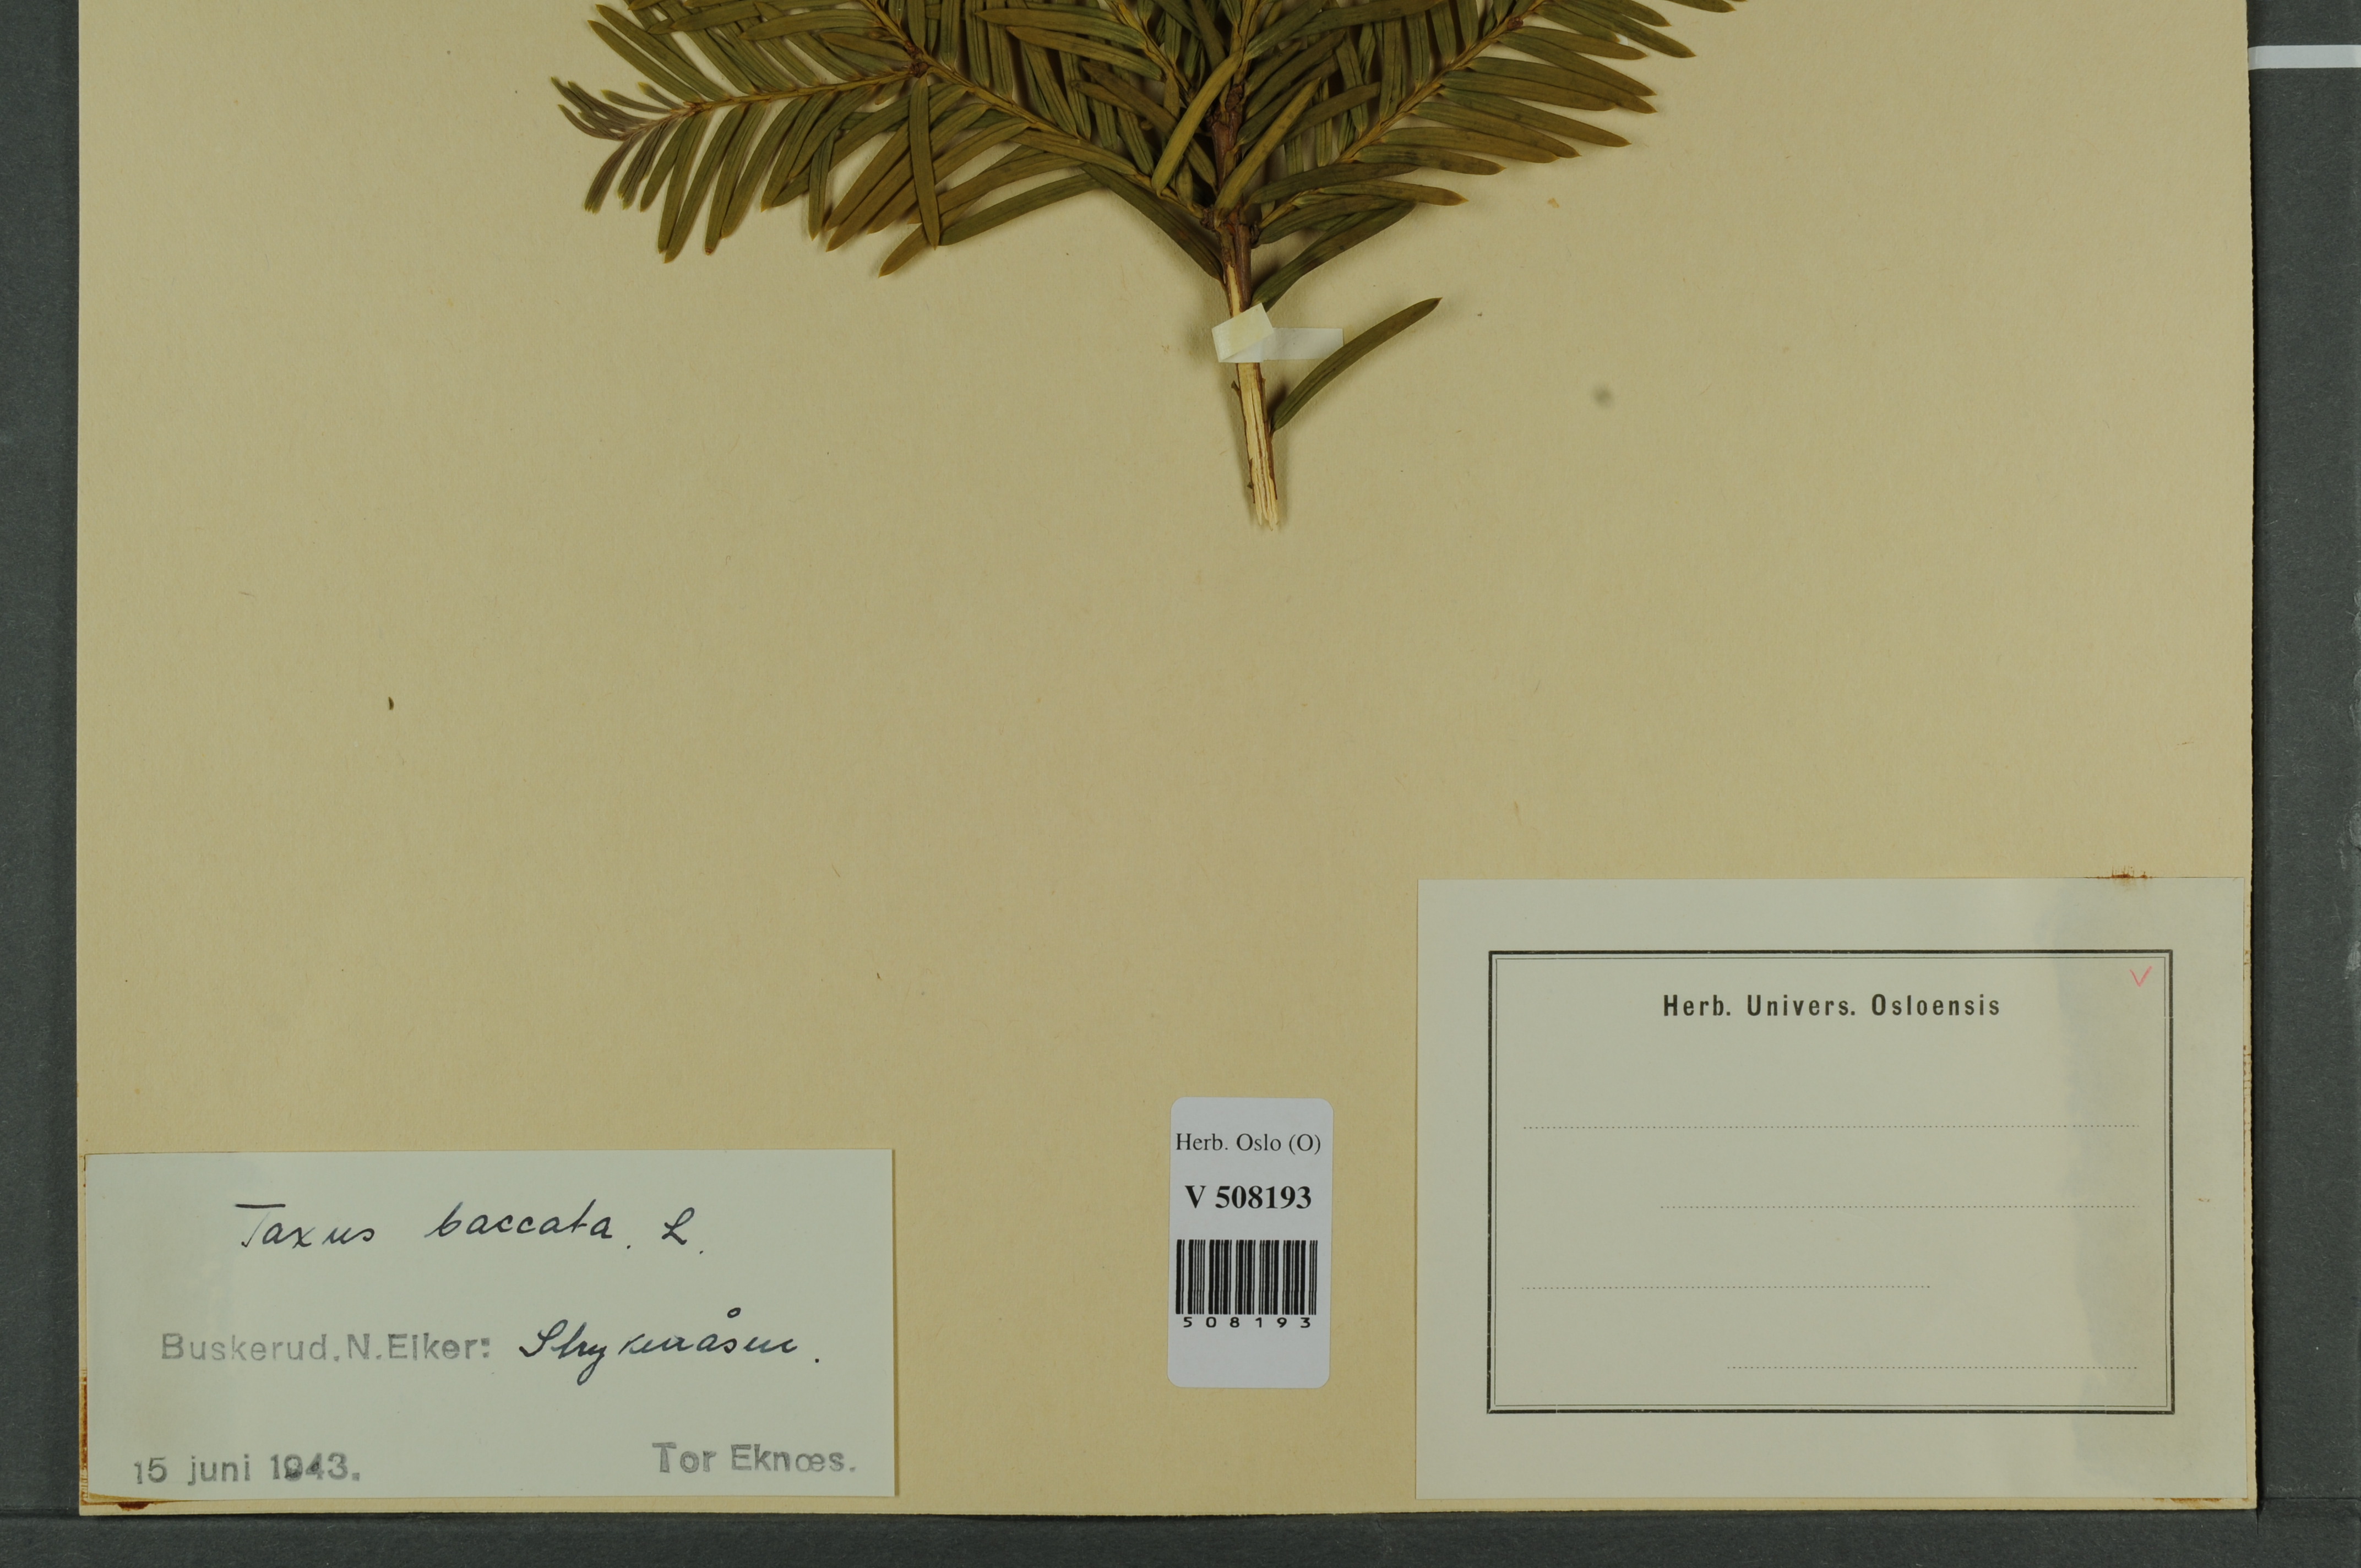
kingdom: Plantae
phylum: Tracheophyta
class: Pinopsida
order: Pinales
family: Taxaceae
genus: Taxus
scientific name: Taxus baccata
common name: Yew
